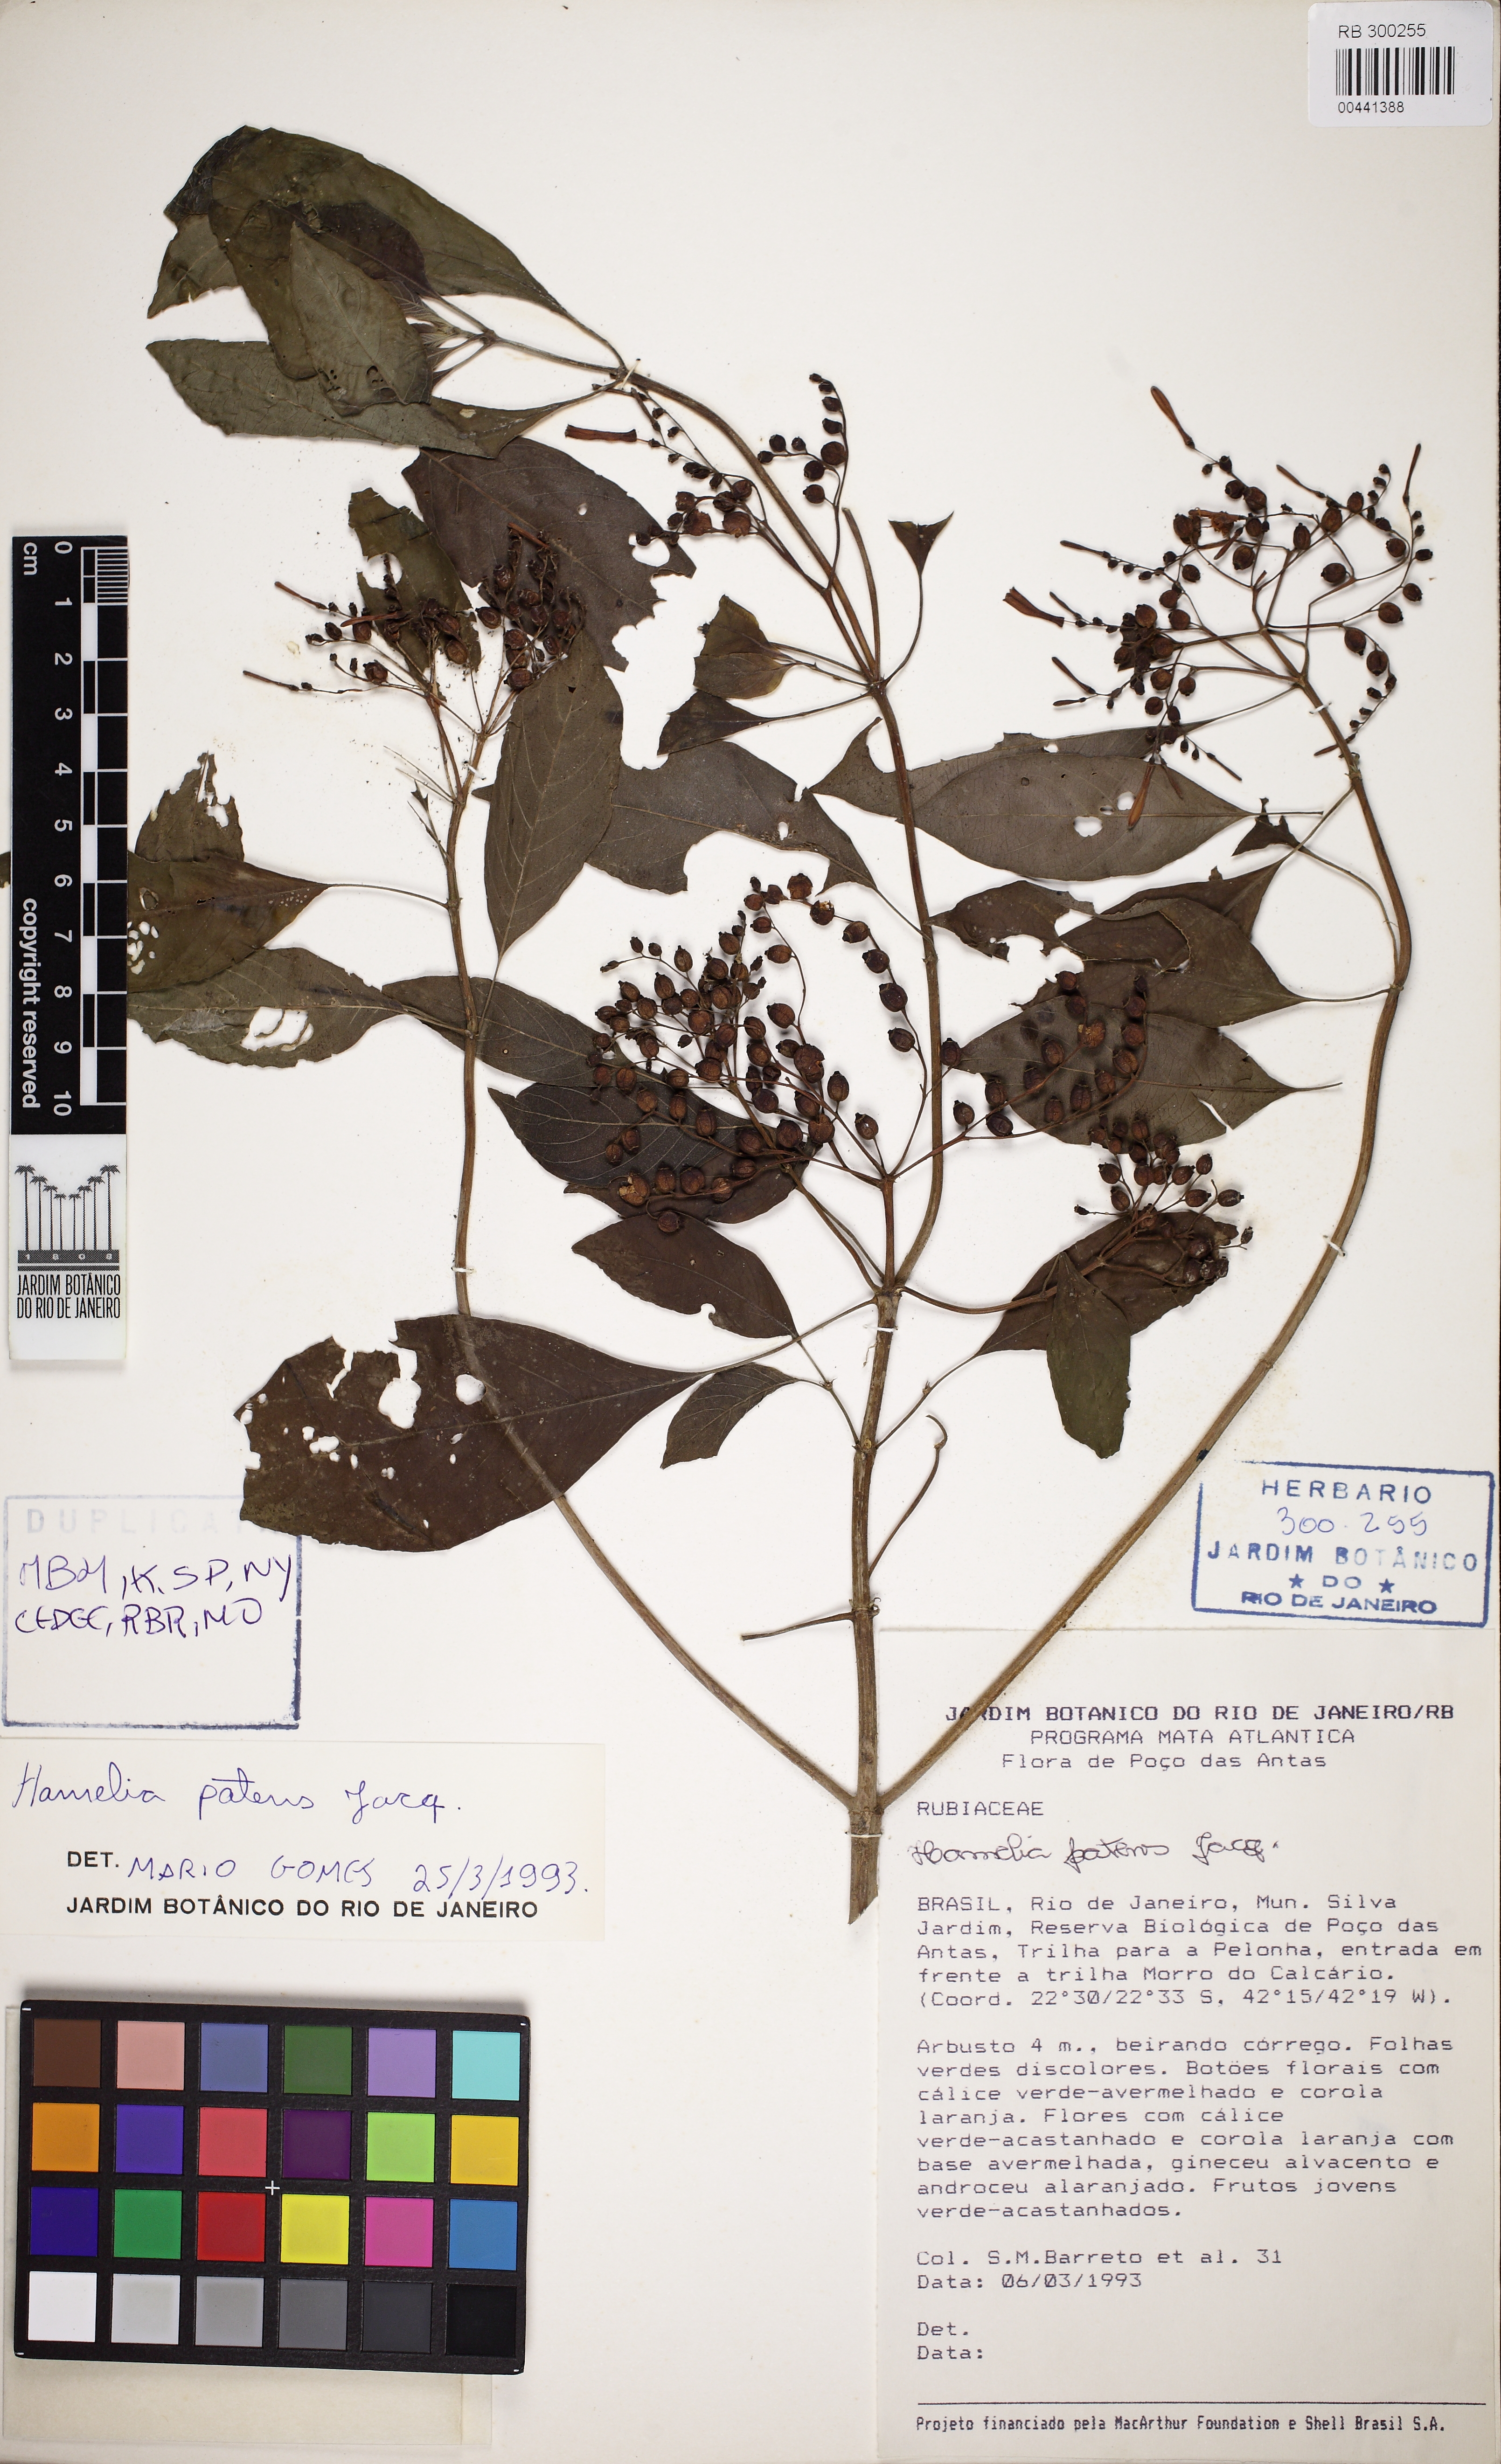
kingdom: Plantae
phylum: Tracheophyta
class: Magnoliopsida
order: Gentianales
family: Rubiaceae
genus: Hamelia
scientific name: Hamelia patens
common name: Redhead
